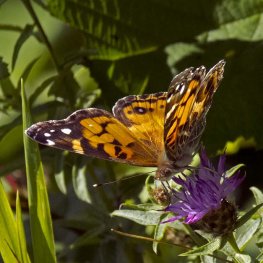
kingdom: Animalia
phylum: Arthropoda
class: Insecta
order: Lepidoptera
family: Nymphalidae
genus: Vanessa
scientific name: Vanessa virginiensis
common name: American Lady
